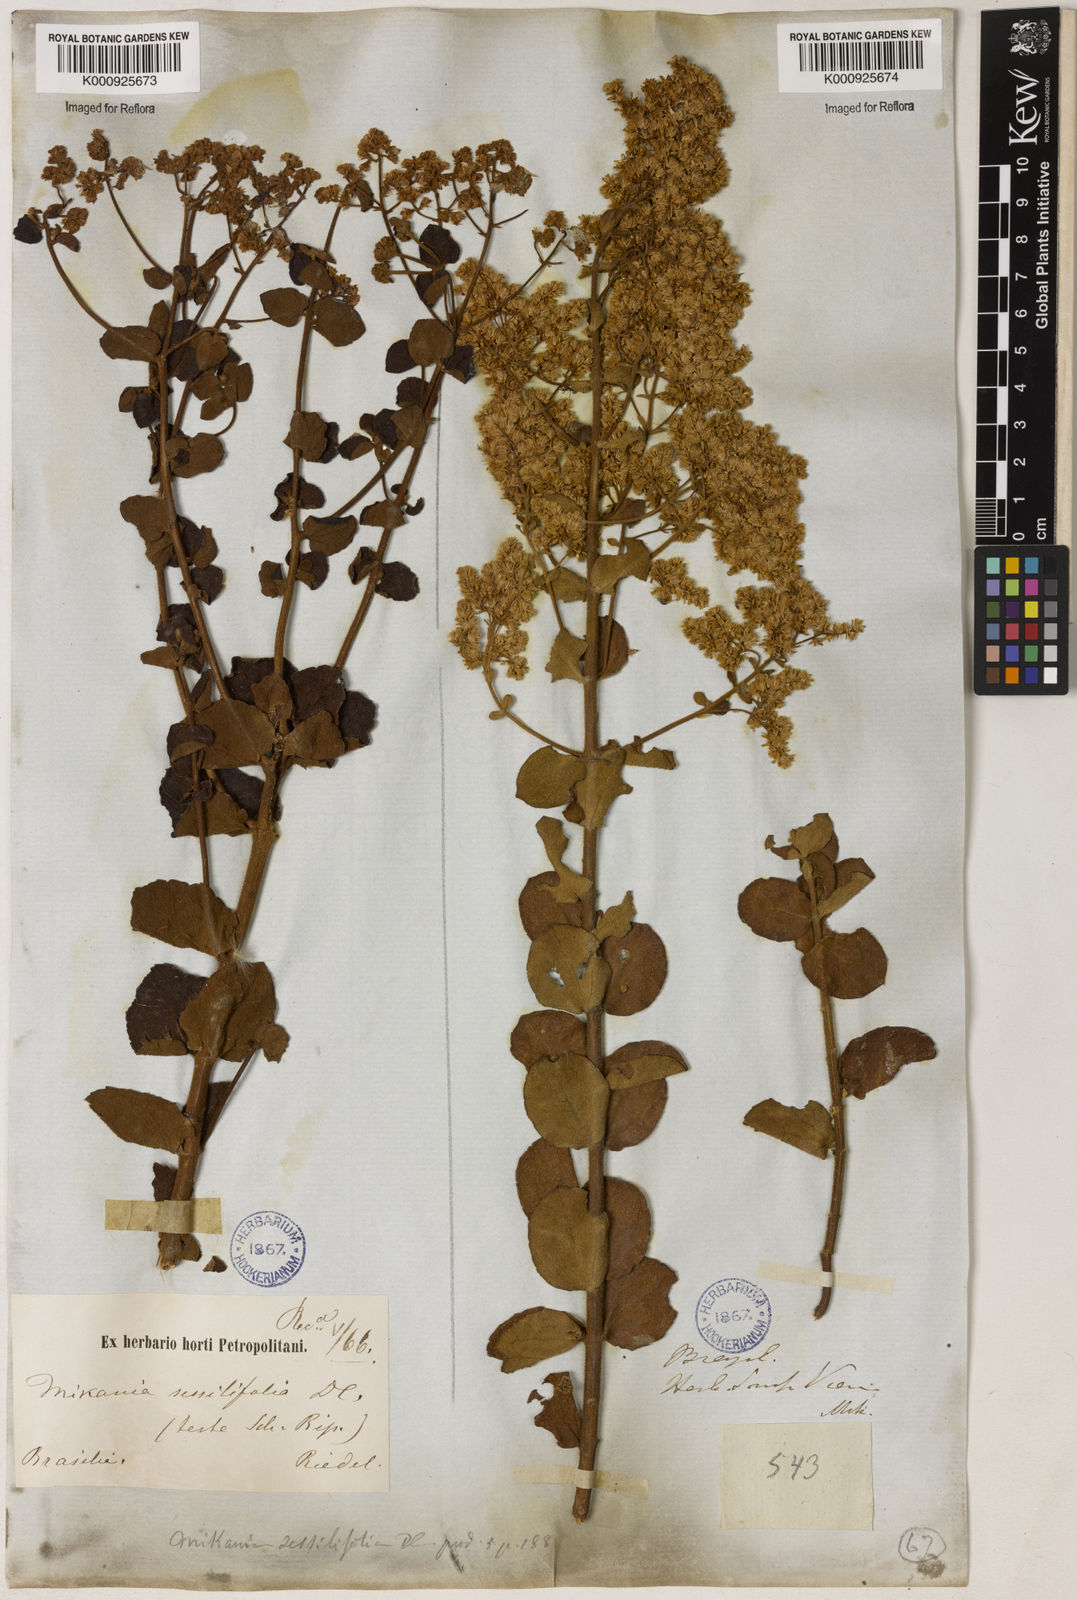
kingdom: Plantae
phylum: Tracheophyta
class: Magnoliopsida
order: Asterales
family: Asteraceae
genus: Mikania
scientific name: Mikania sessilifolia
